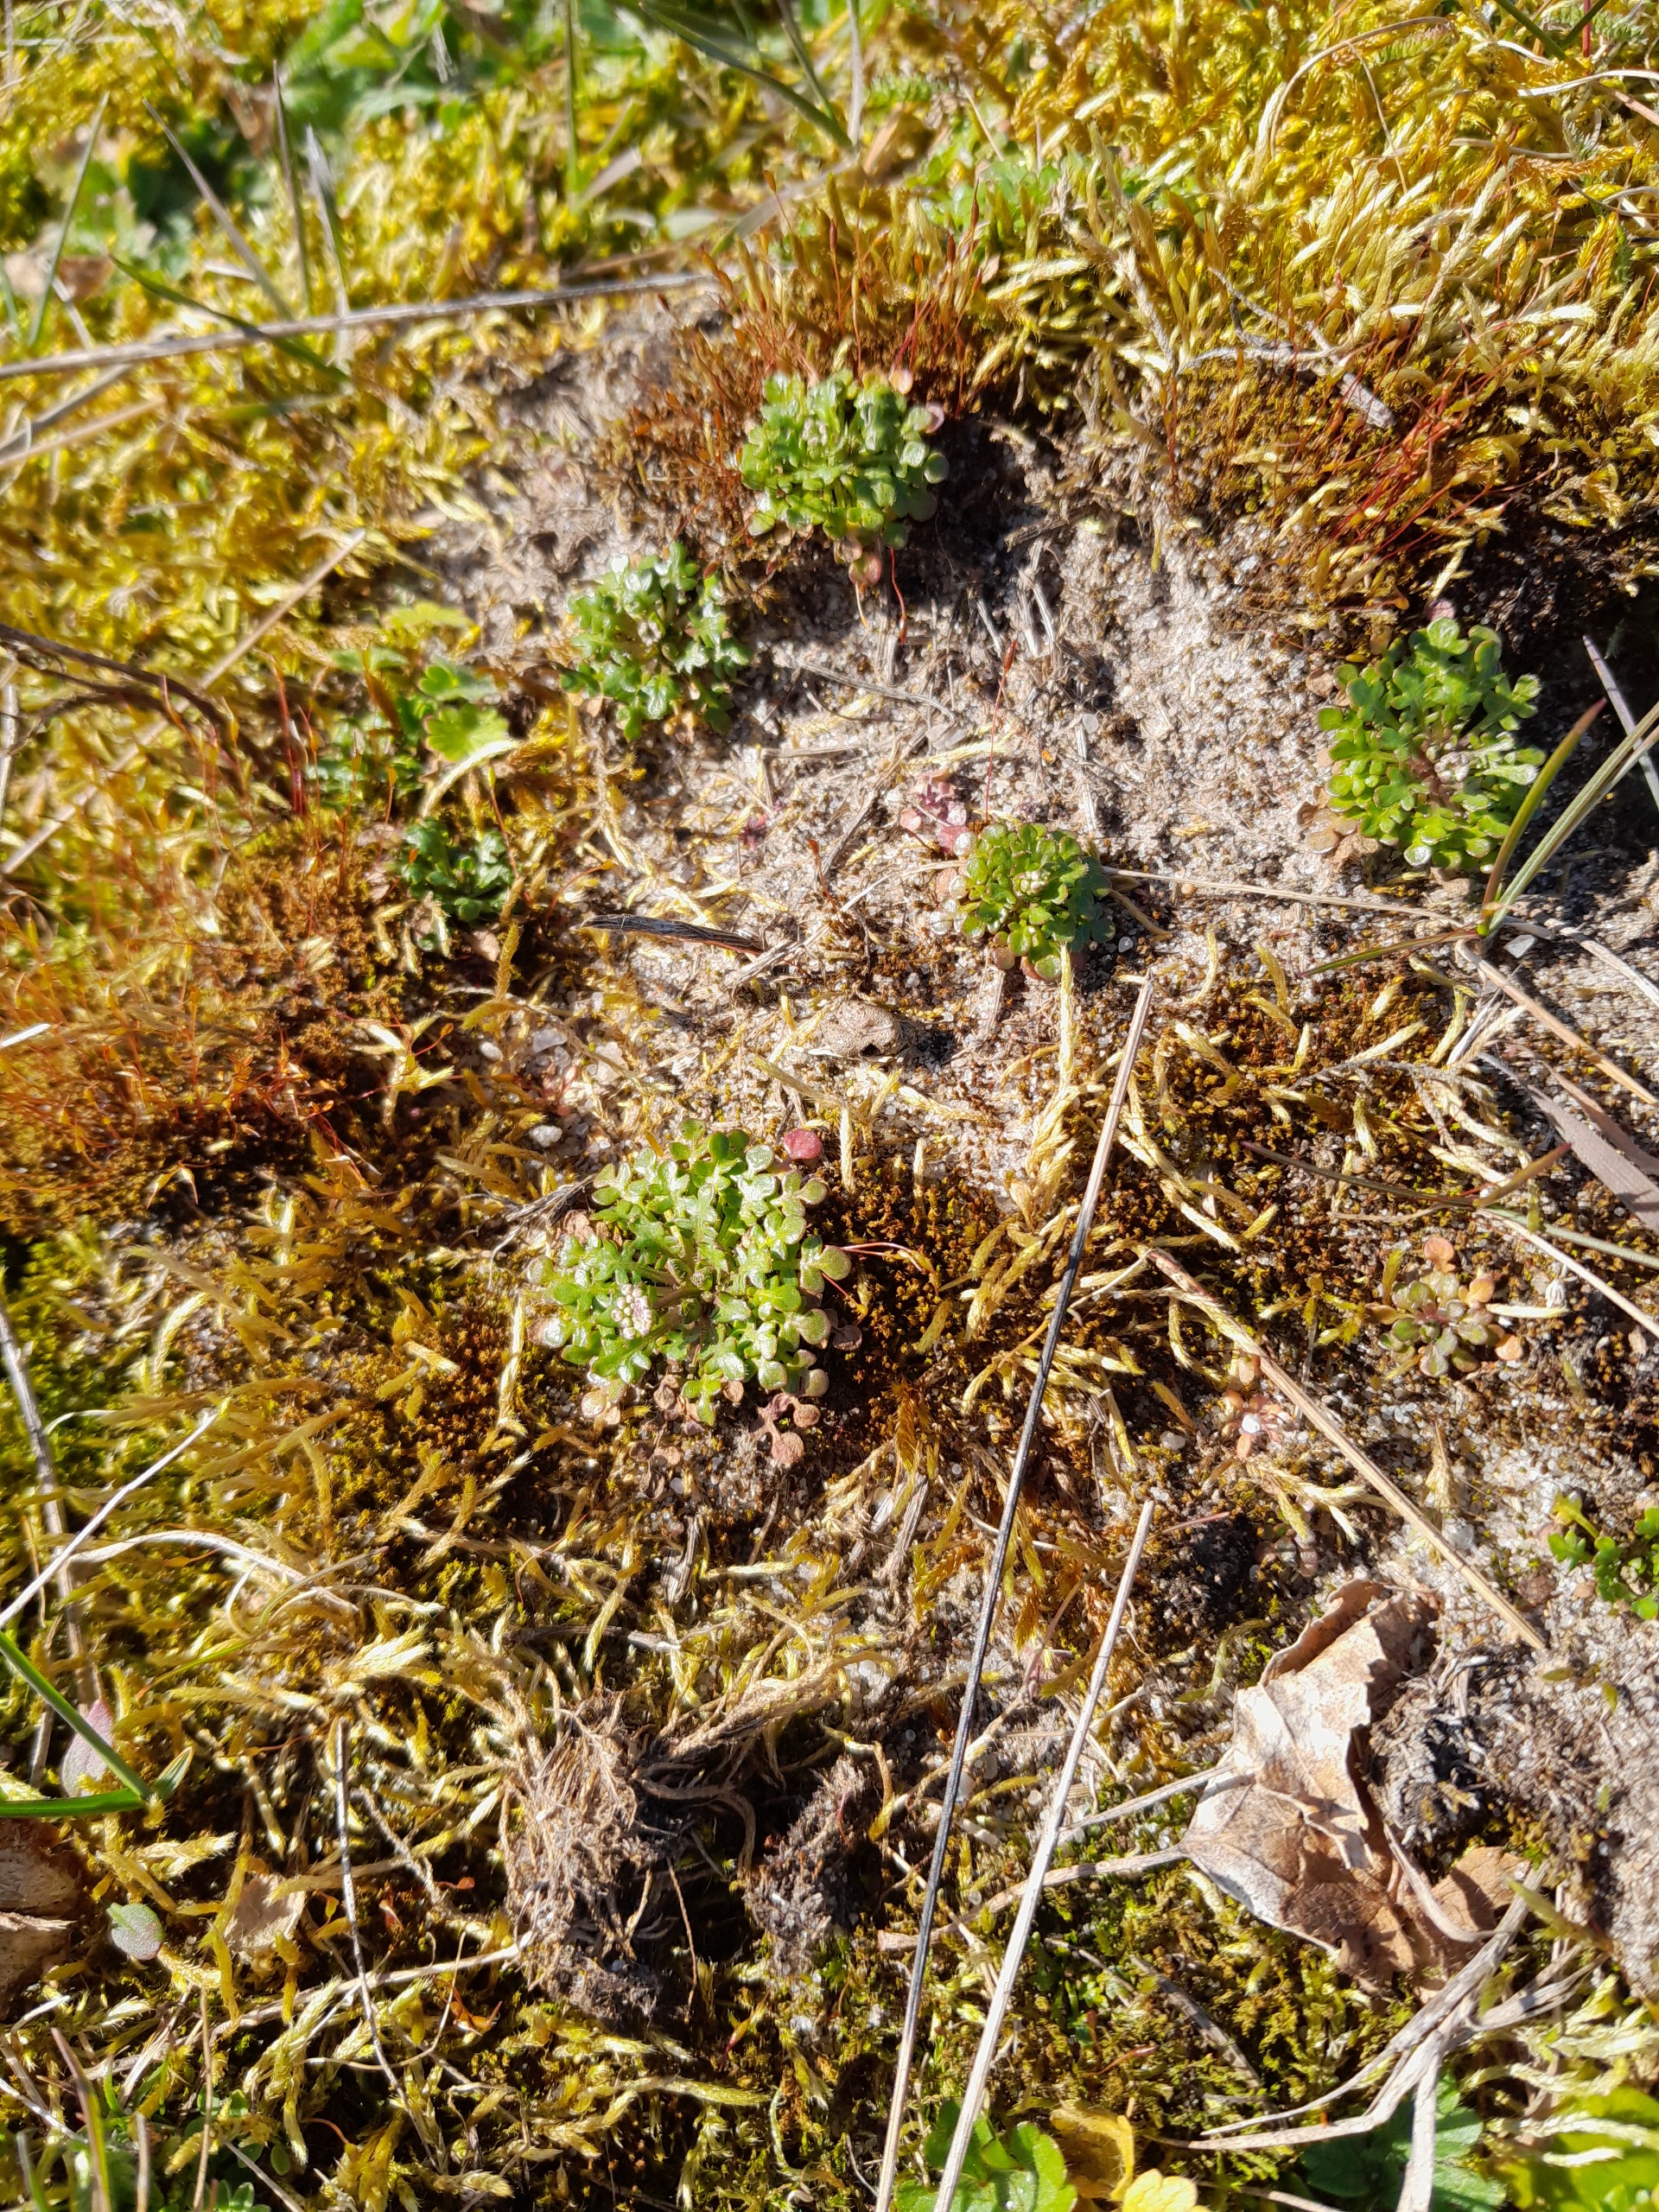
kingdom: Plantae
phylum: Tracheophyta
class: Magnoliopsida
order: Brassicales
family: Brassicaceae
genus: Teesdalia
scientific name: Teesdalia nudicaulis
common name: Flipkrave
